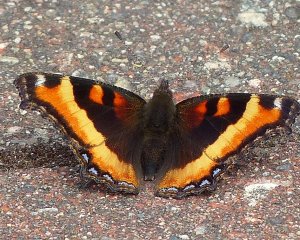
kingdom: Animalia
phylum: Arthropoda
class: Insecta
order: Lepidoptera
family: Nymphalidae
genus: Aglais
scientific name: Aglais milberti
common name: Milbert's Tortoiseshell
